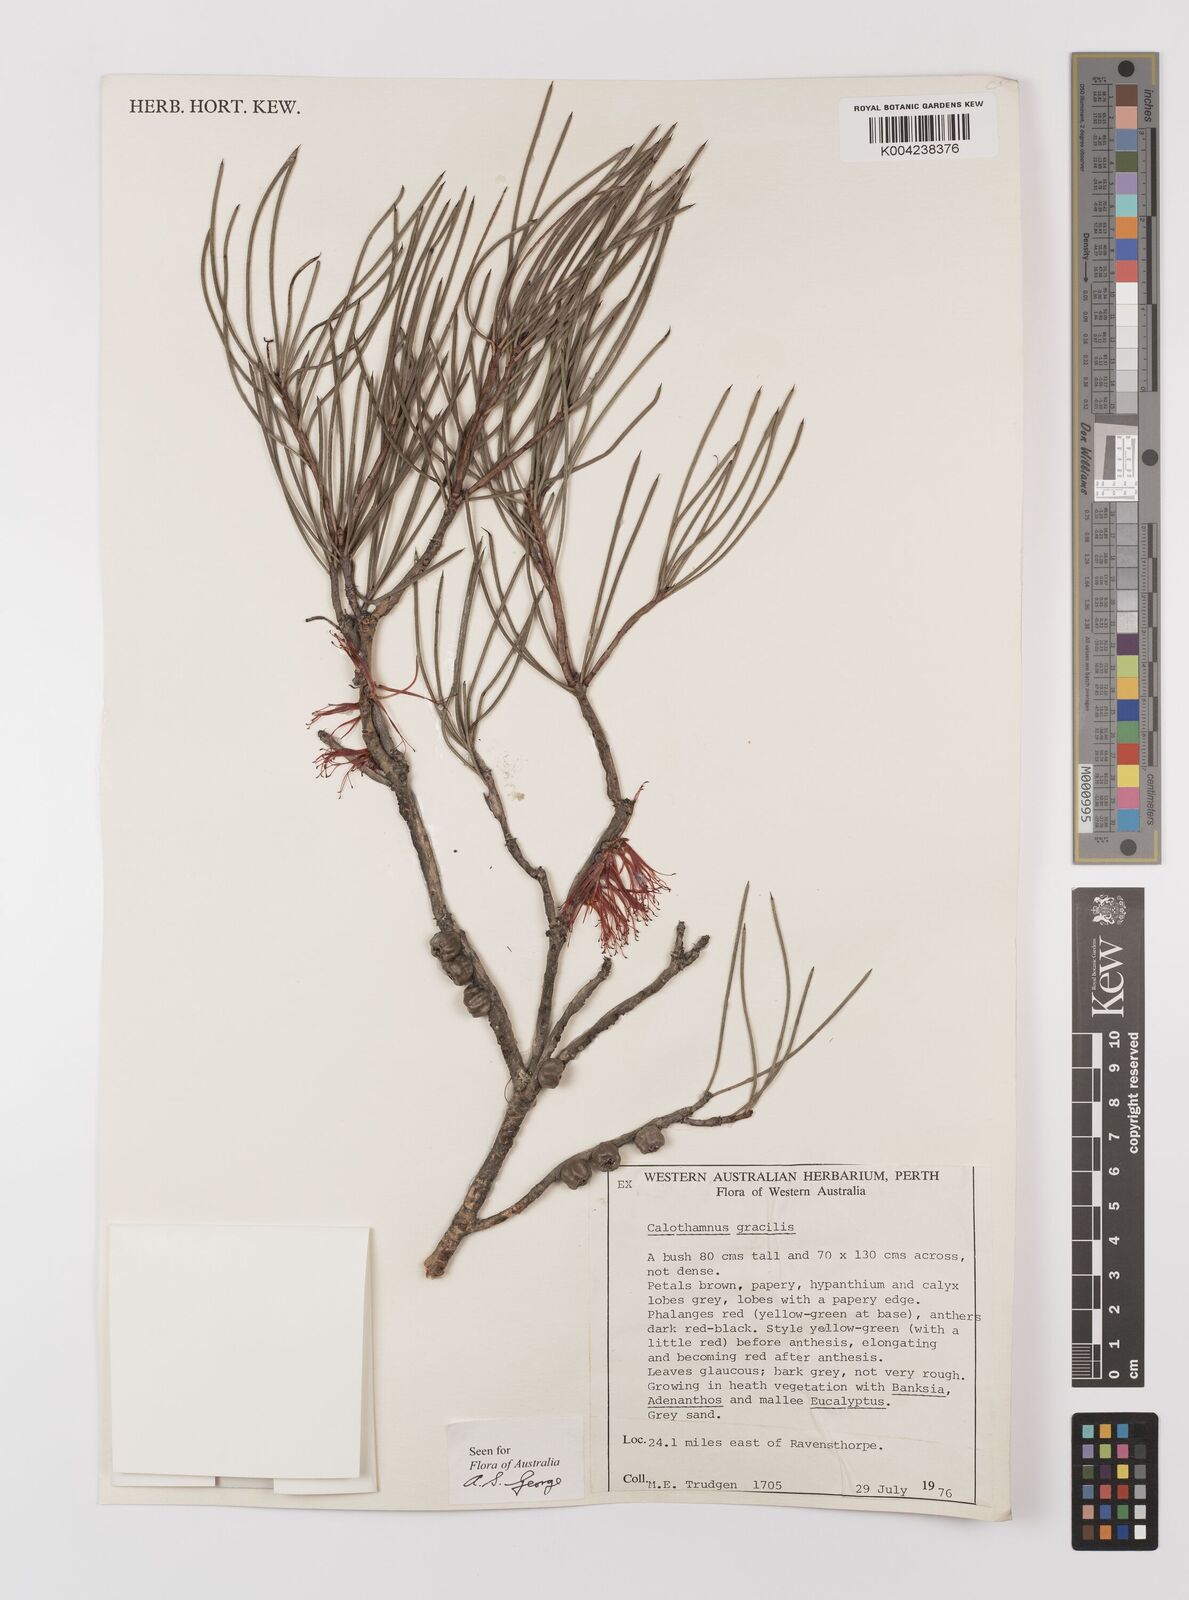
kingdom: Plantae
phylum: Tracheophyta
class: Magnoliopsida
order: Myrtales
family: Myrtaceae
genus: Melaleuca
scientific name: Melaleuca gracilis
